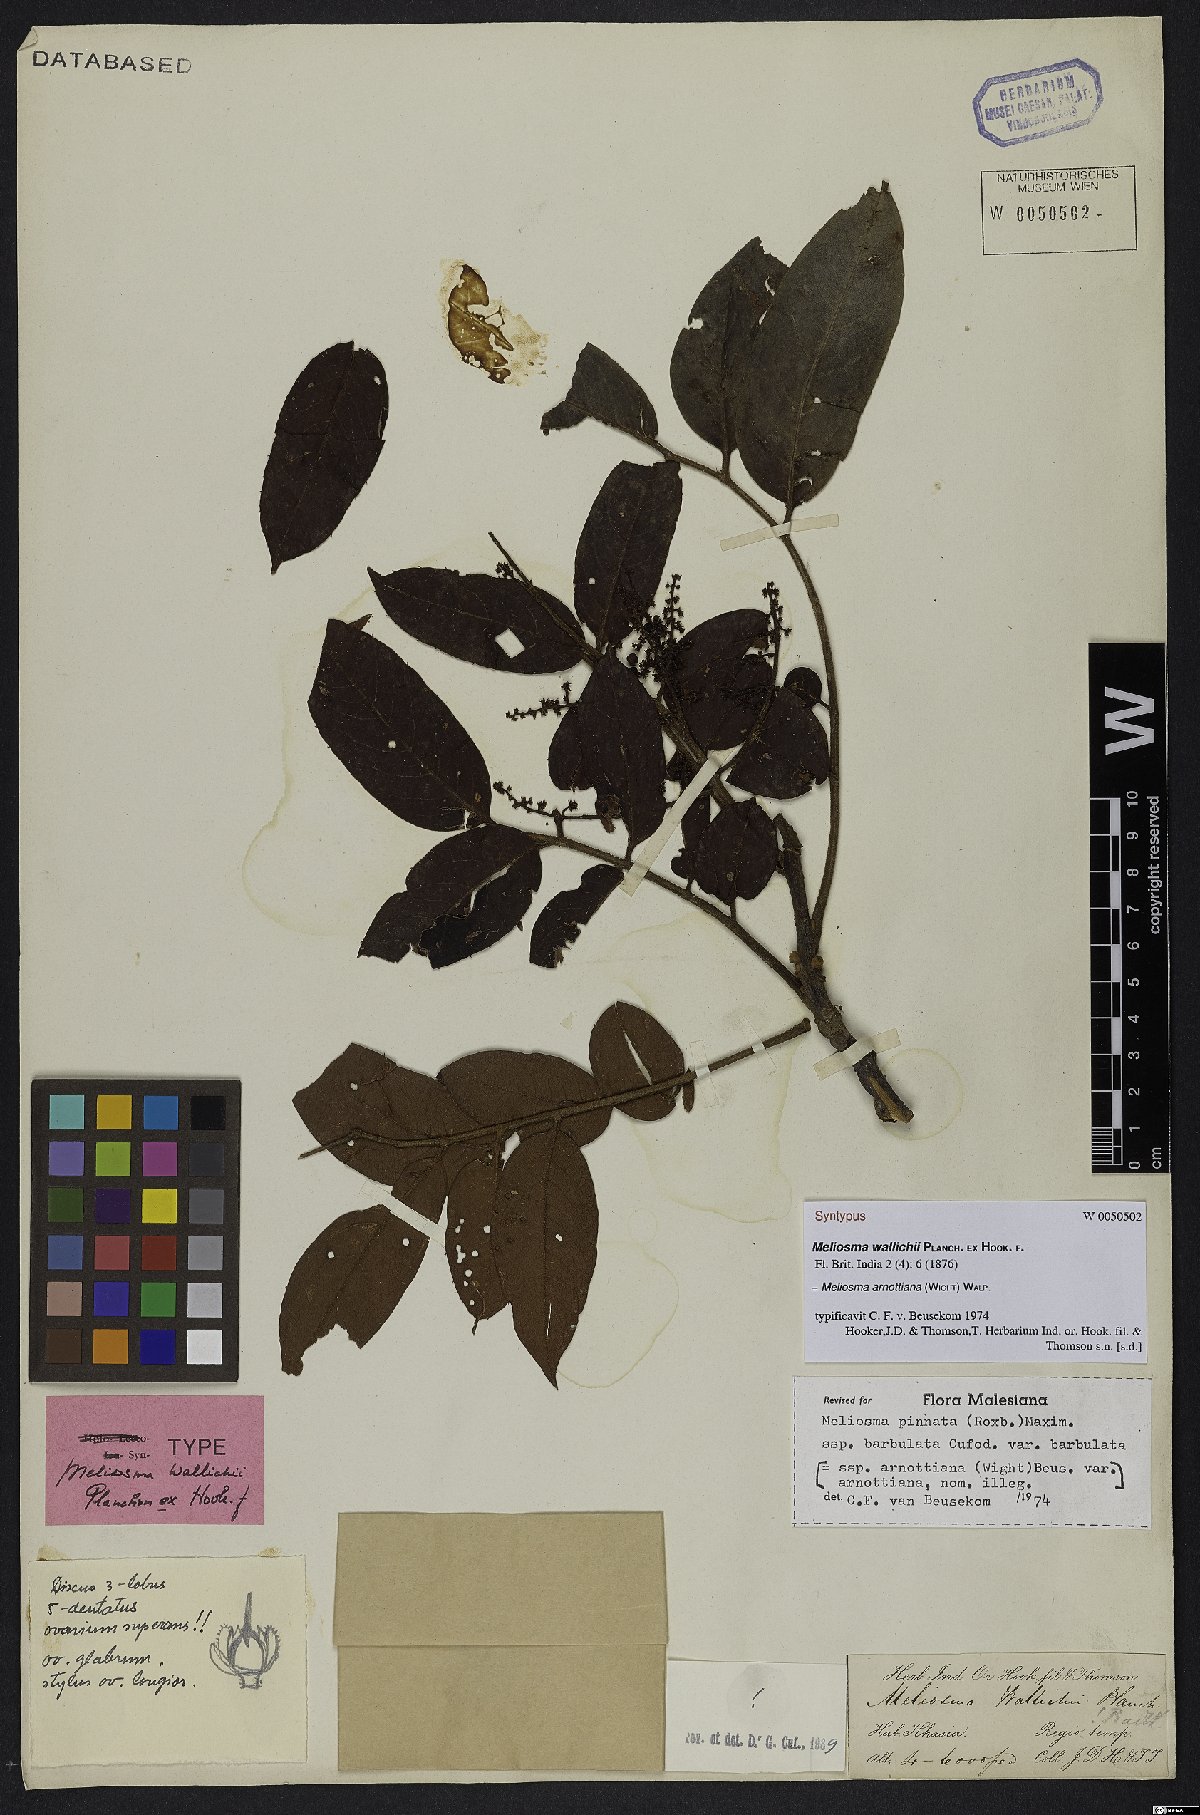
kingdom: Plantae
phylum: Tracheophyta
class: Magnoliopsida
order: Proteales
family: Sabiaceae
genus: Meliosma
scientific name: Meliosma arnottiana
